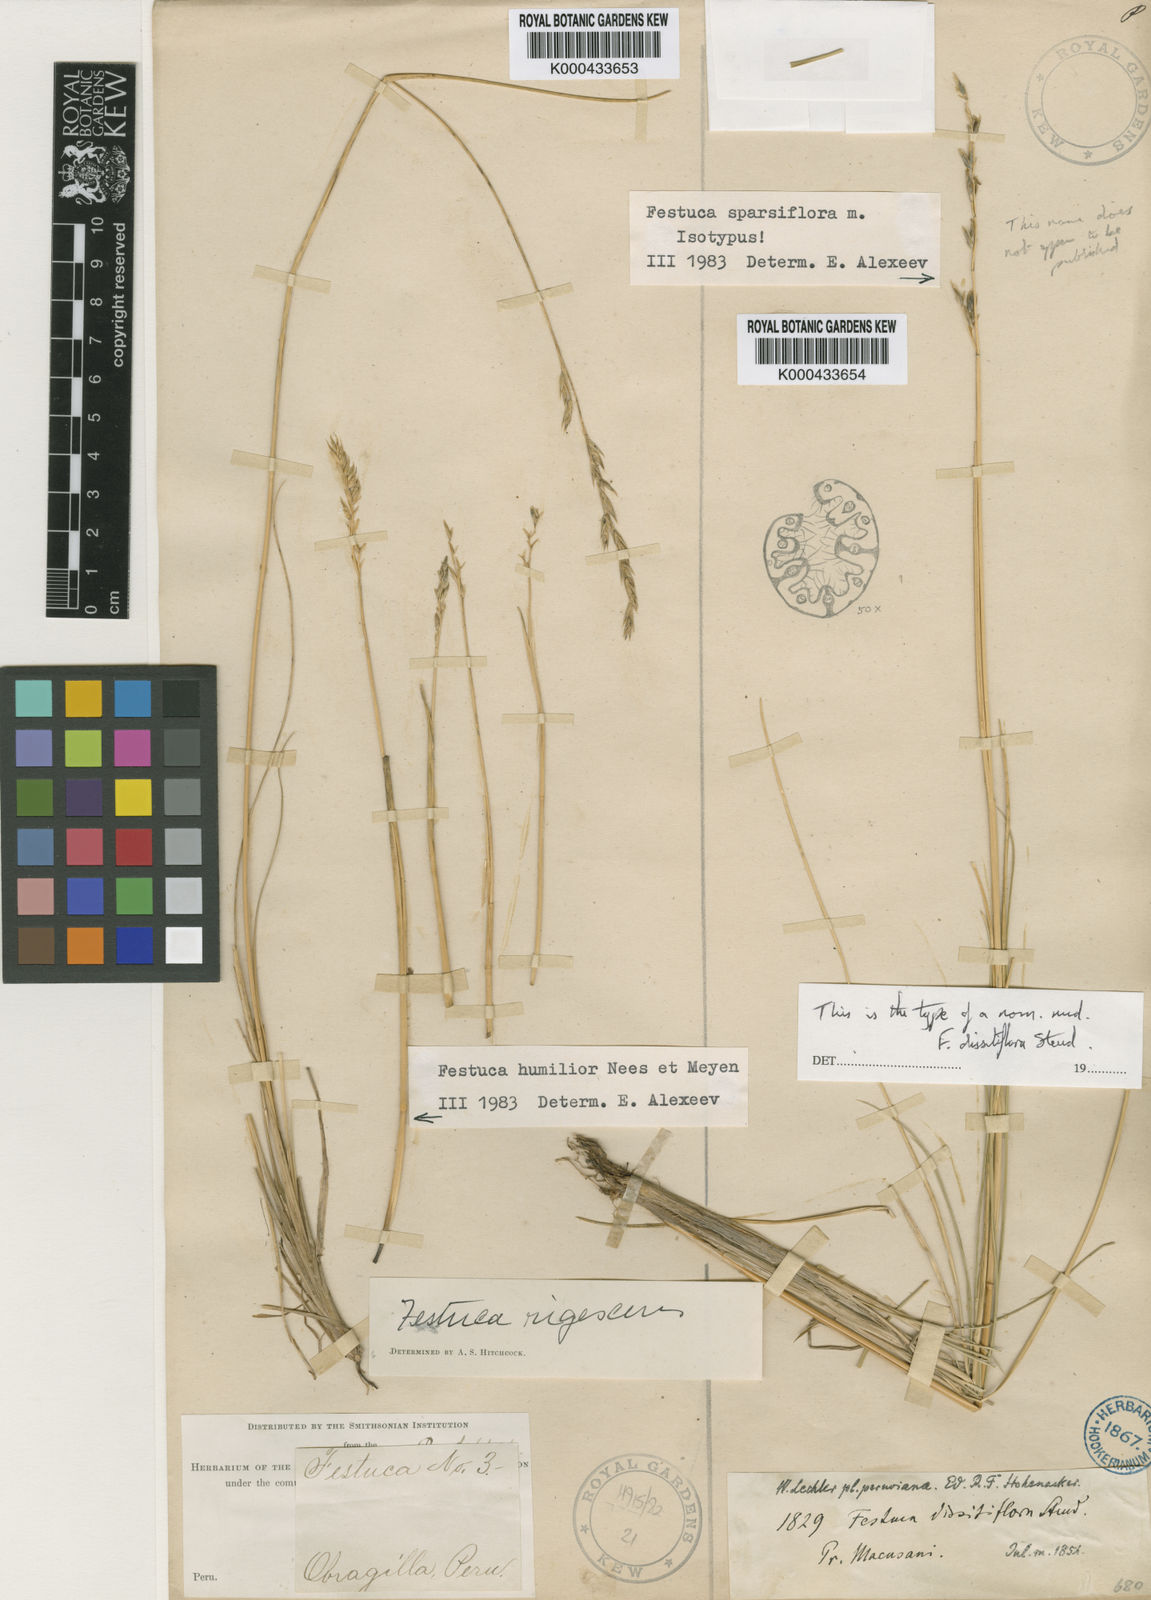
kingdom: Plantae
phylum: Tracheophyta
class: Liliopsida
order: Poales
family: Poaceae
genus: Festuca
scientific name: Festuca
